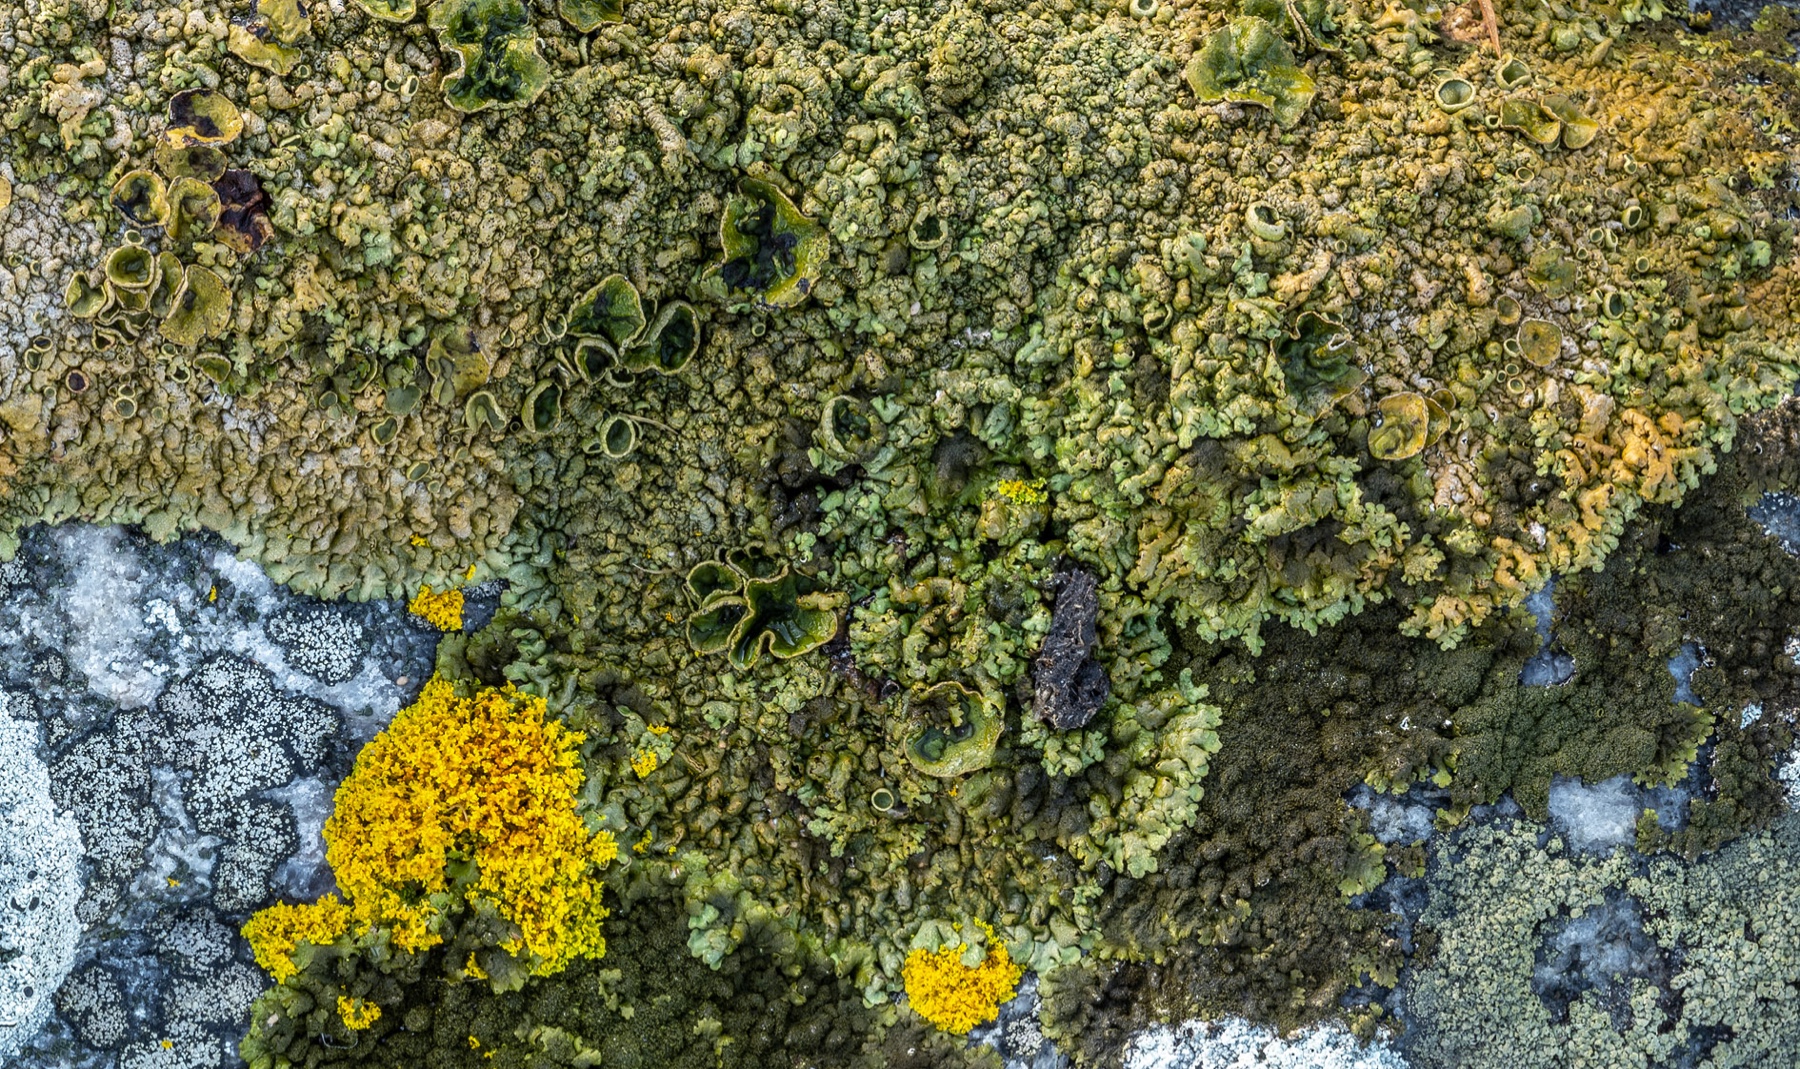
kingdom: Fungi
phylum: Ascomycota
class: Lecanoromycetes
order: Lecanorales
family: Parmeliaceae
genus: Xanthoparmelia
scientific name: Xanthoparmelia verruculifera
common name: småknoppet skållav
